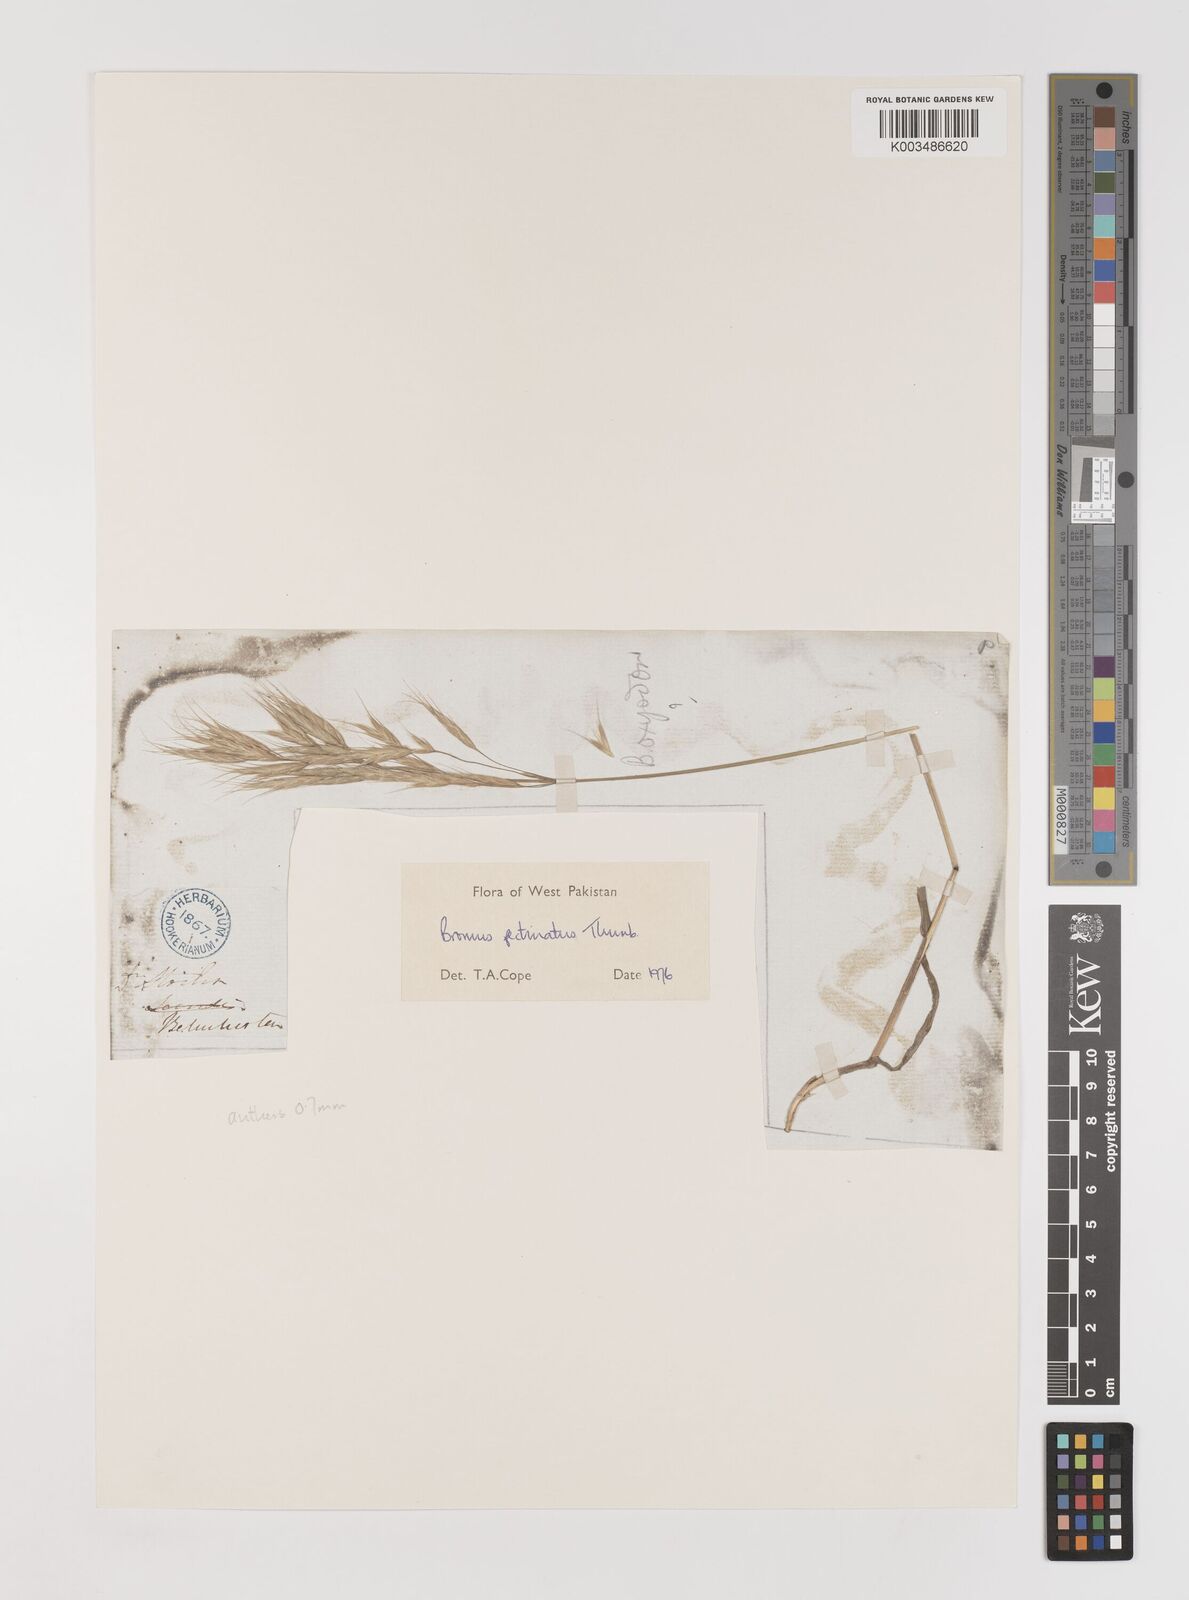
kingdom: Plantae
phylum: Tracheophyta
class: Liliopsida
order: Poales
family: Poaceae
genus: Bromus
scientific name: Bromus pectinatus
